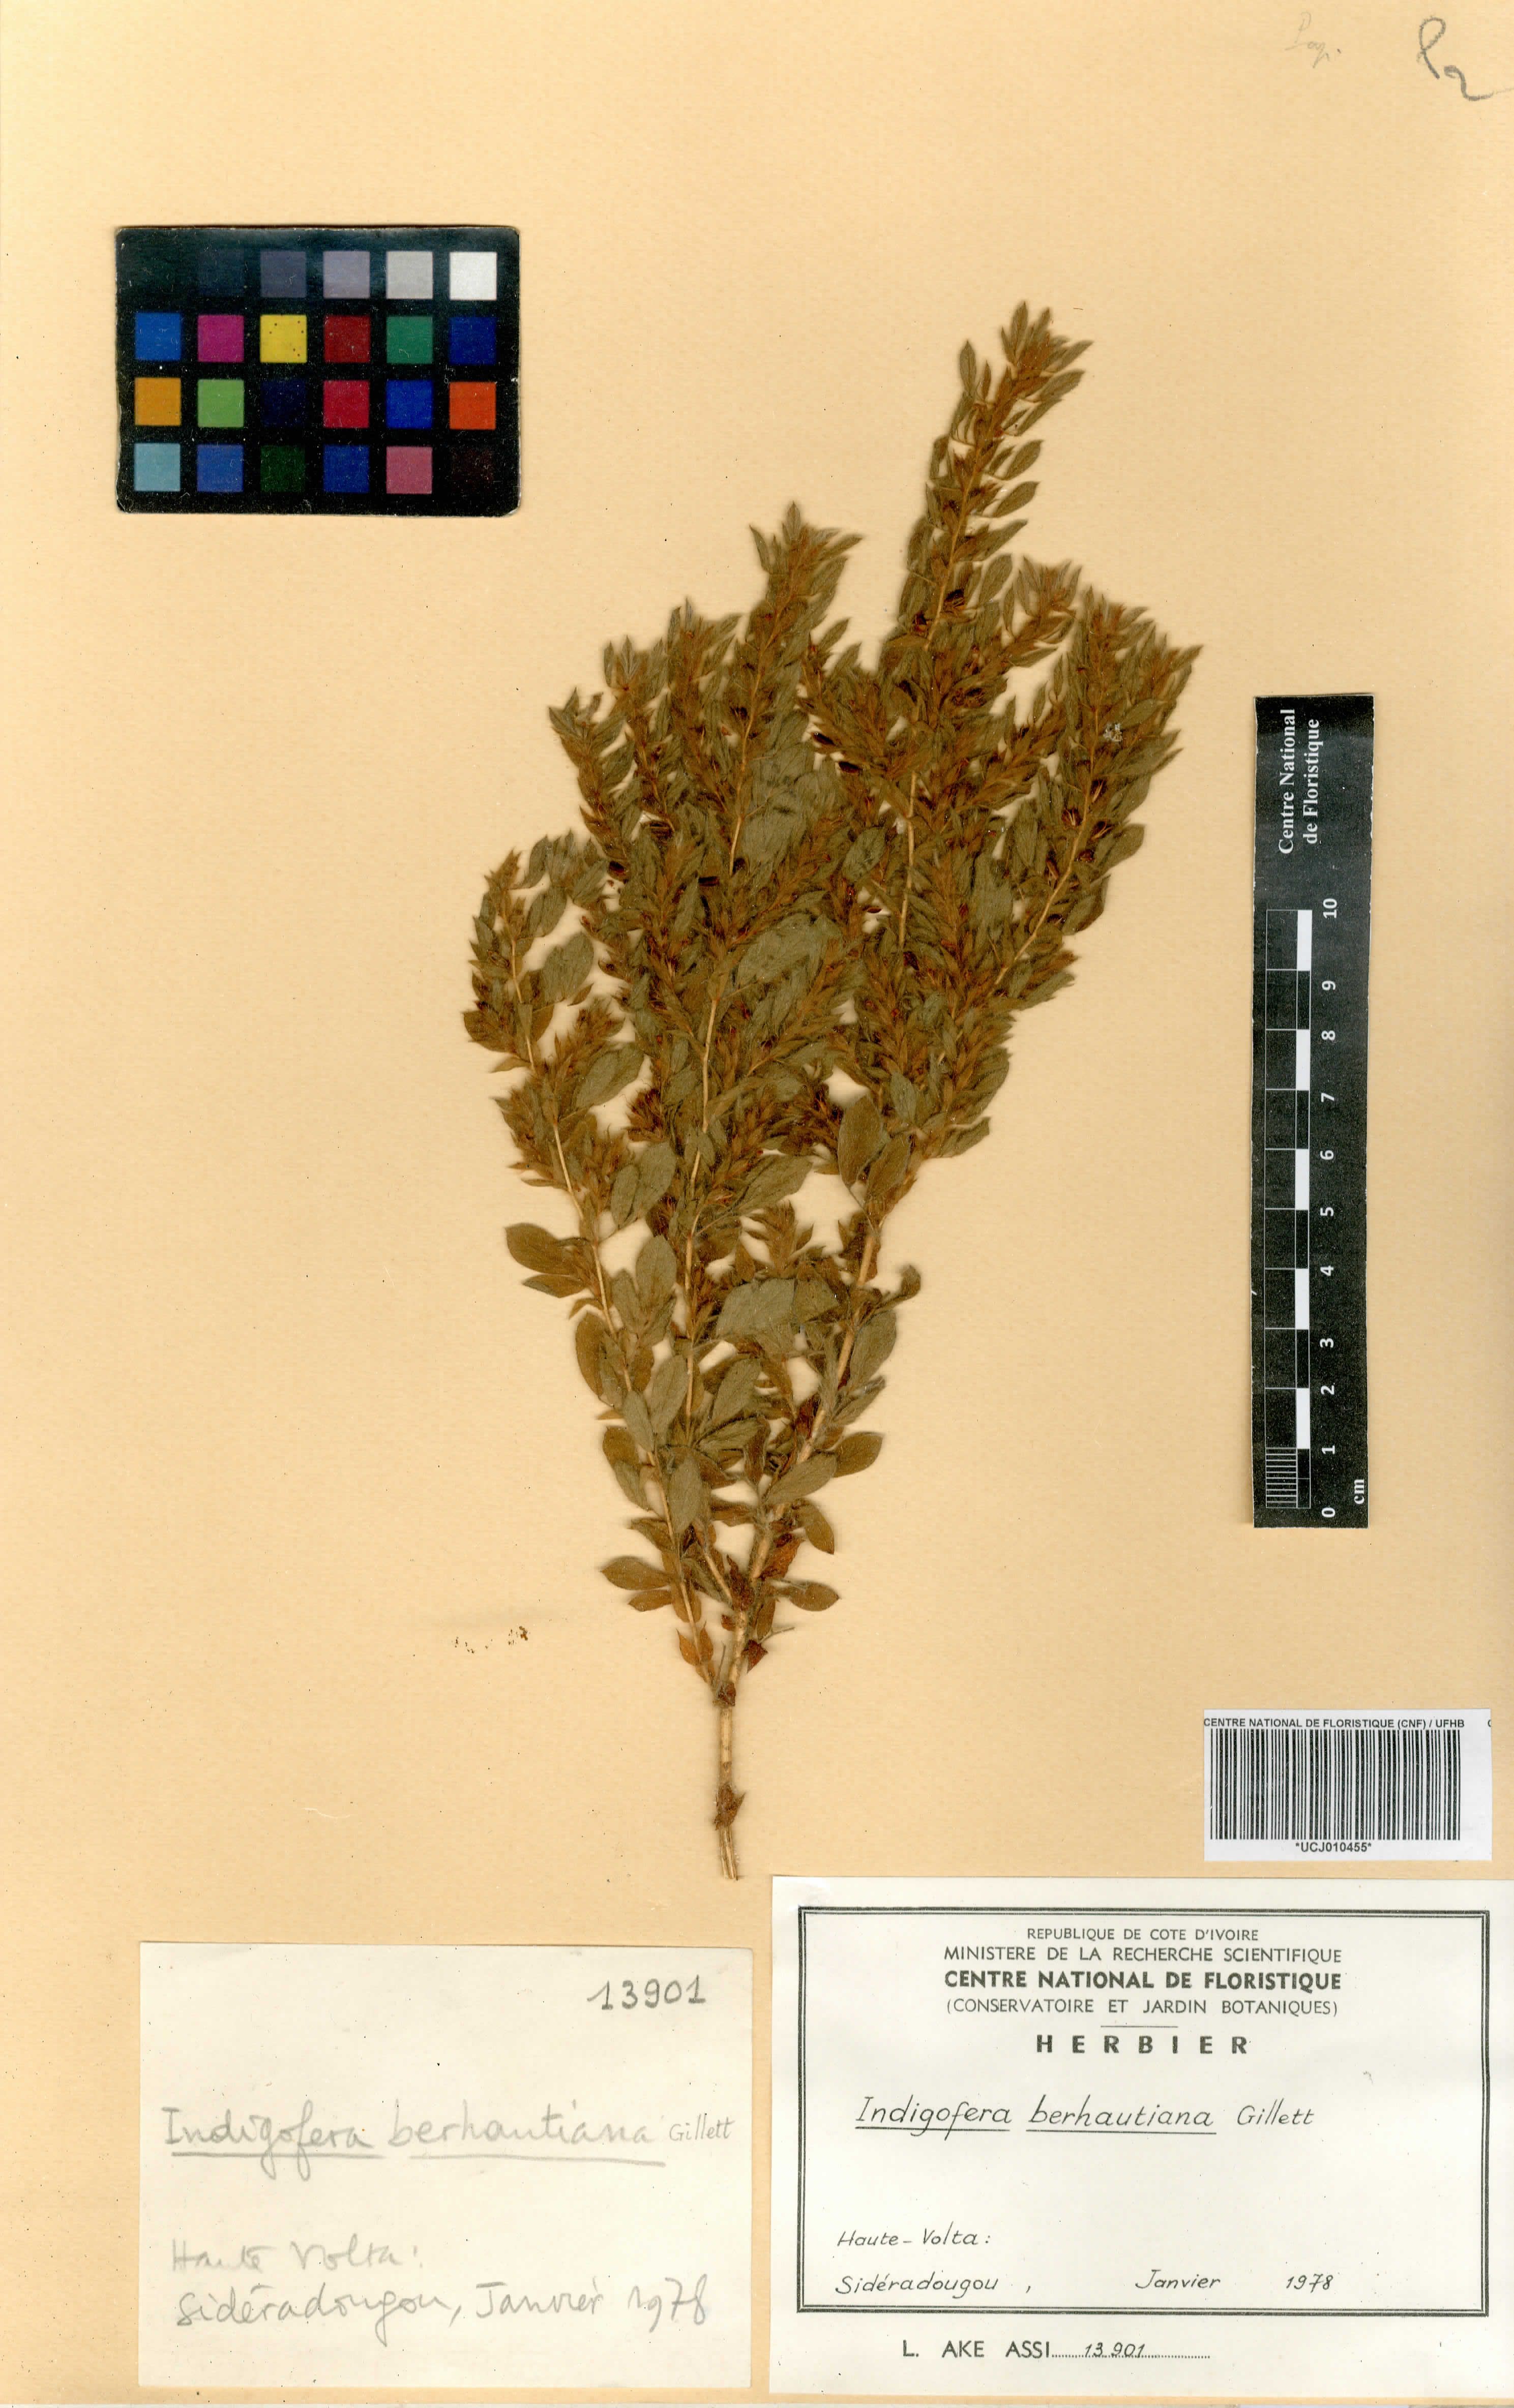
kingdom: Plantae
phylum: Tracheophyta
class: Magnoliopsida
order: Fabales
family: Fabaceae
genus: Indigofera
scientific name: Indigofera berhautiana
